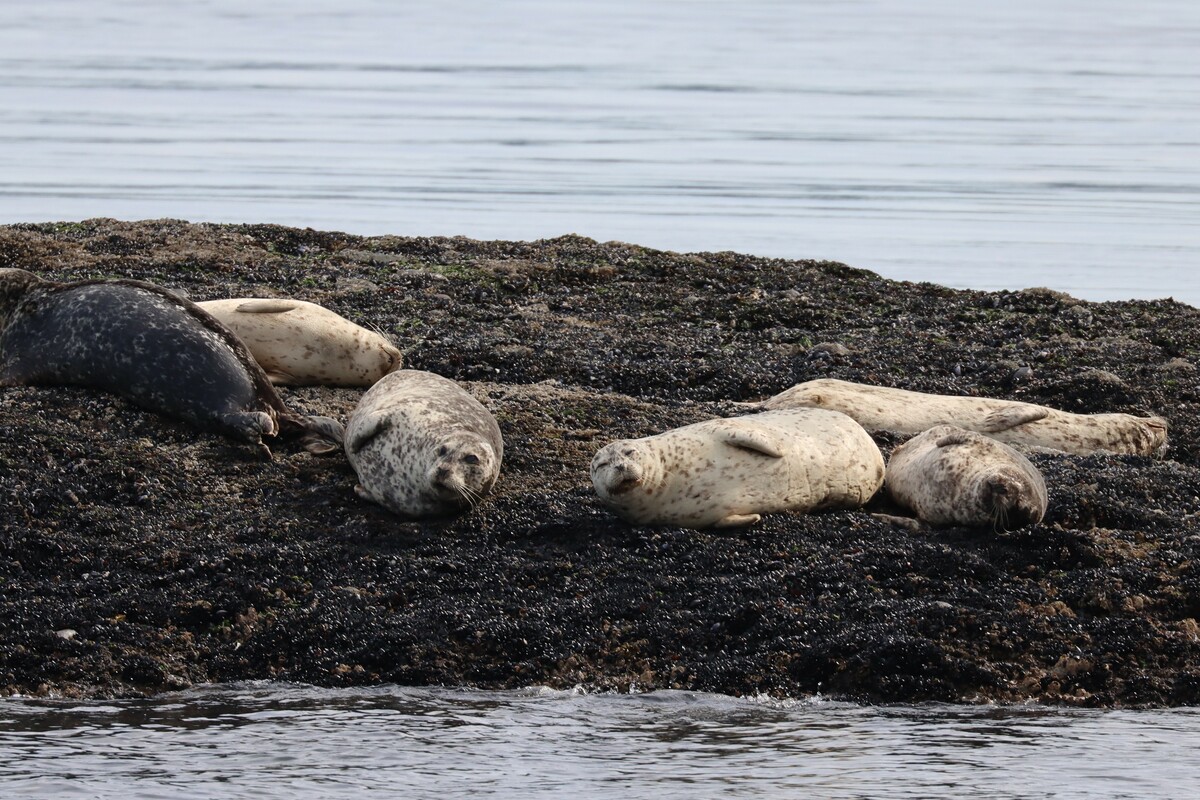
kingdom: Animalia
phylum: Chordata
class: Mammalia
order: Carnivora
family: Phocidae
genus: Phoca
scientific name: Phoca vitulina
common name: Harbor seal
